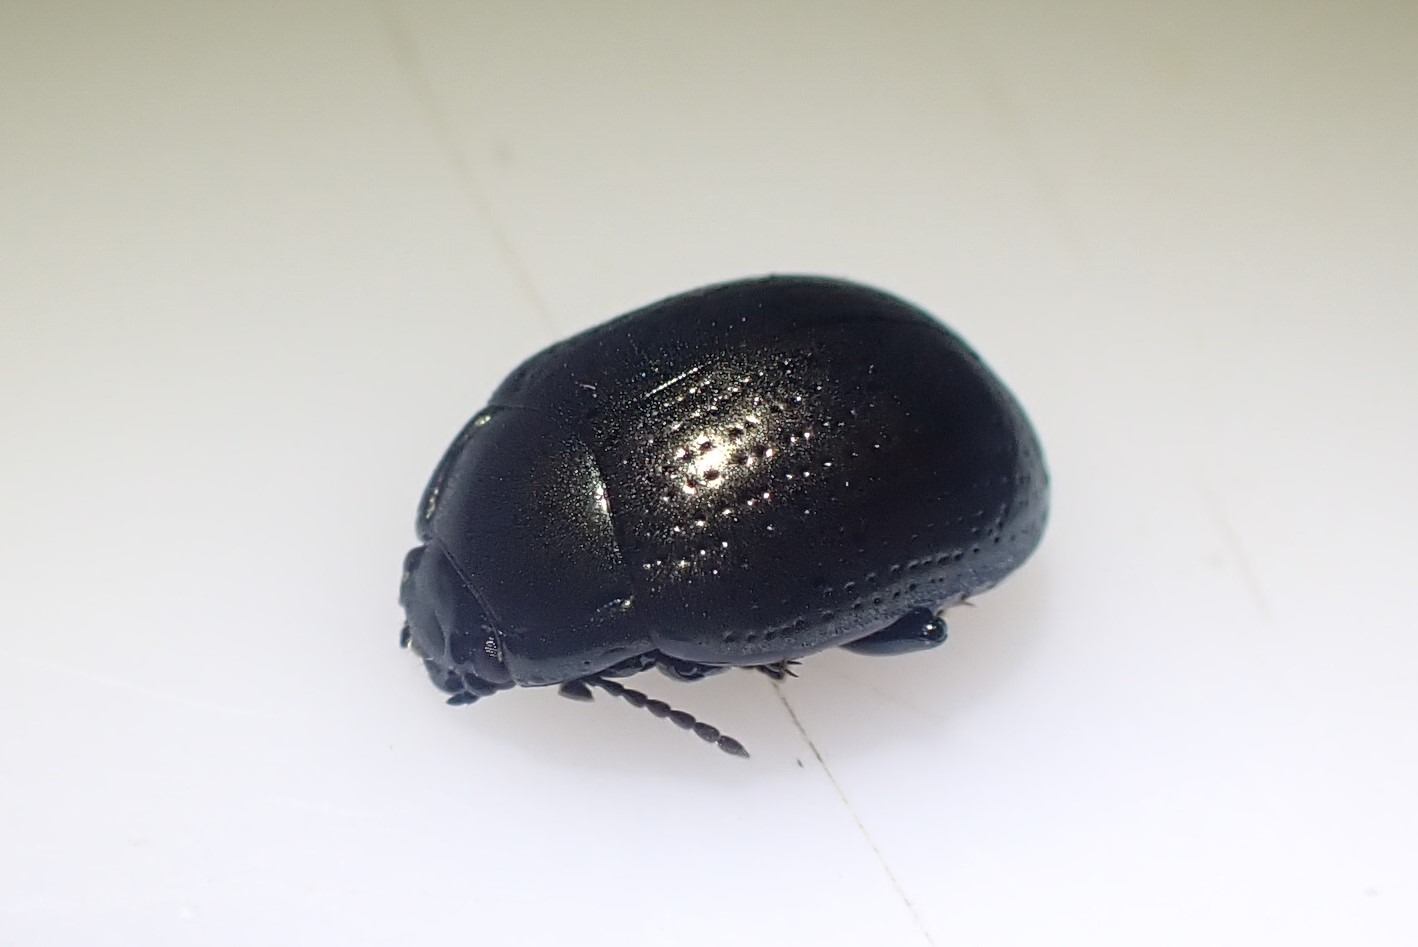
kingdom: Animalia
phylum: Arthropoda
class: Insecta
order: Coleoptera
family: Chrysomelidae
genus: Chrysolina
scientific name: Chrysolina oricalcia
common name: Rækkepunkteret guldbille
